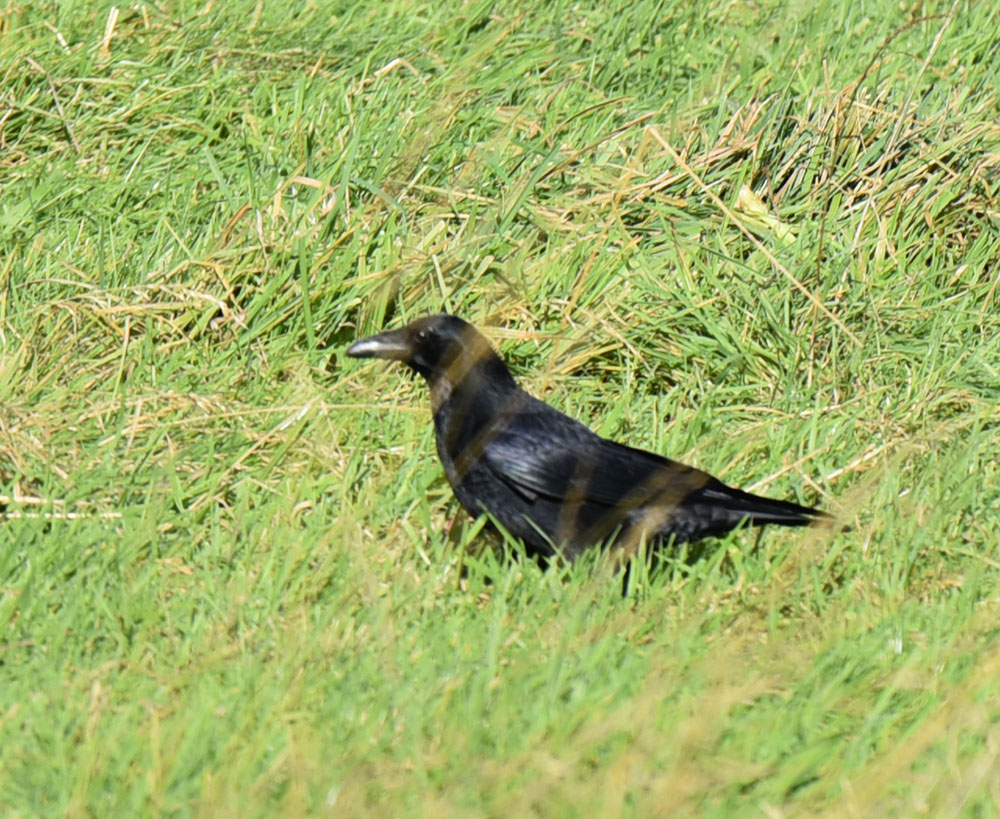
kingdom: Animalia
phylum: Chordata
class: Aves
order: Passeriformes
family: Corvidae
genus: Corvus
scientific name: Corvus corone
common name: Carrion crow
